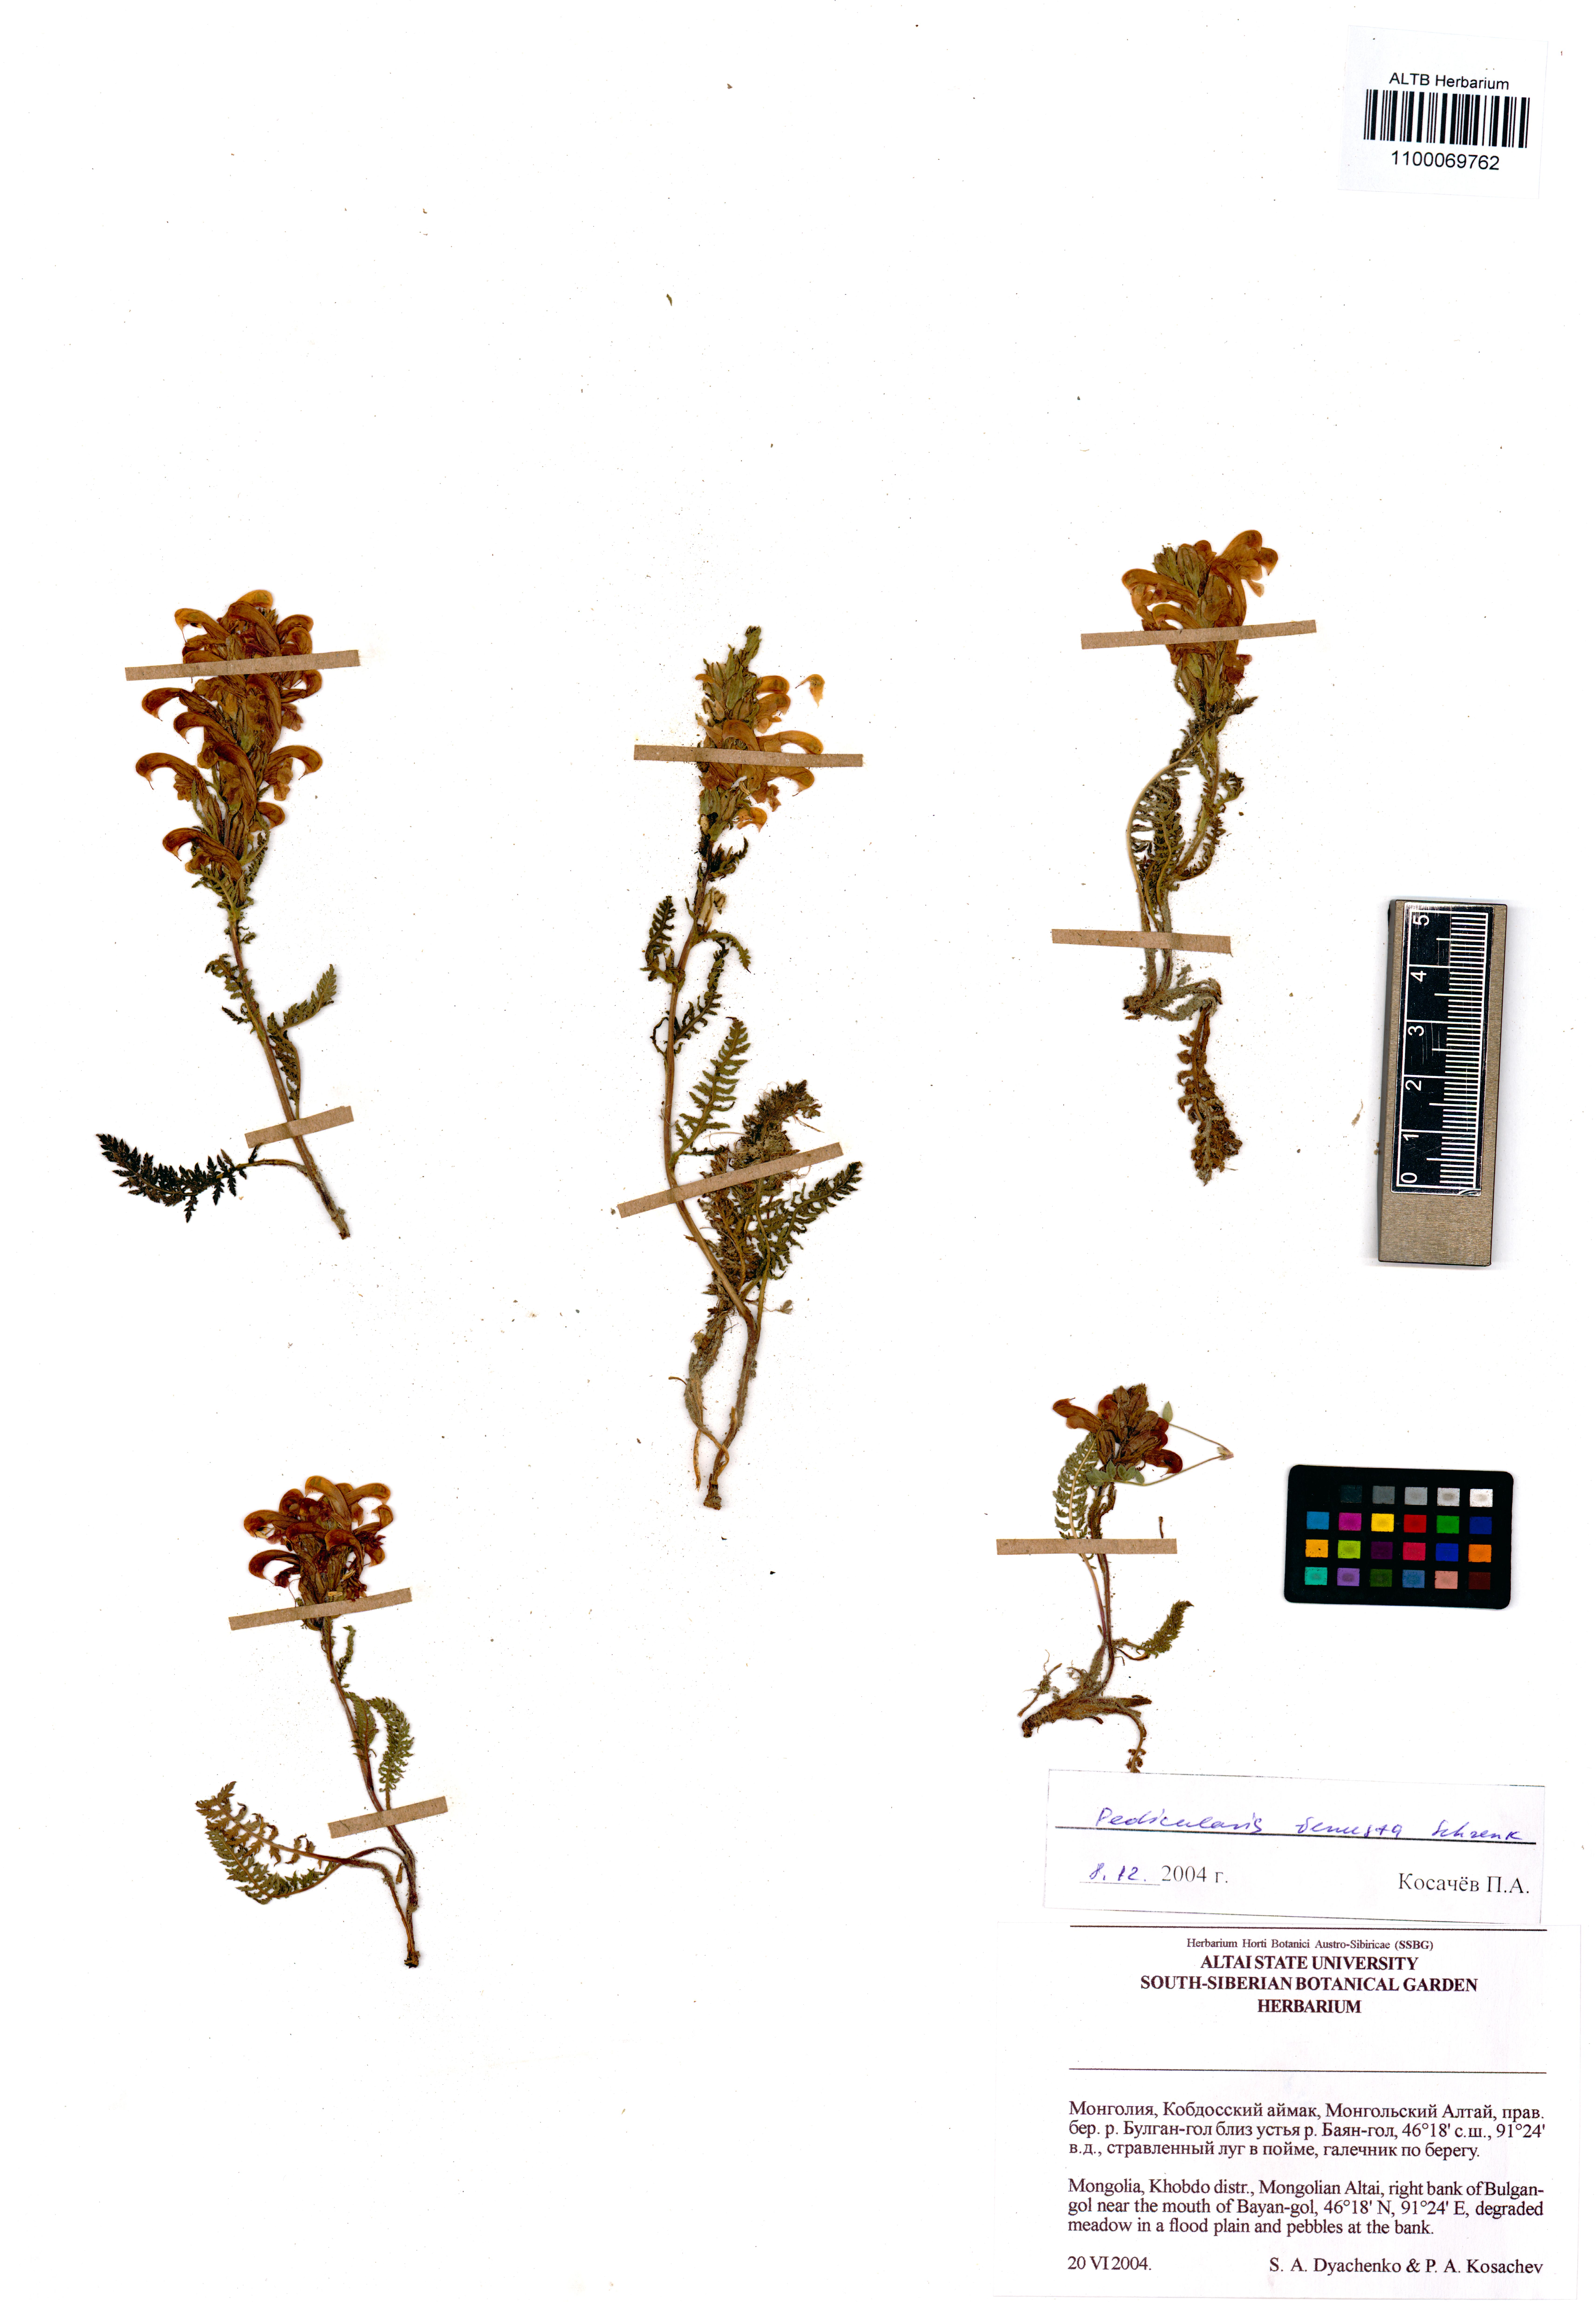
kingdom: Plantae
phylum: Tracheophyta
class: Magnoliopsida
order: Lamiales
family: Orobanchaceae
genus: Pedicularis
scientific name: Pedicularis venusta
